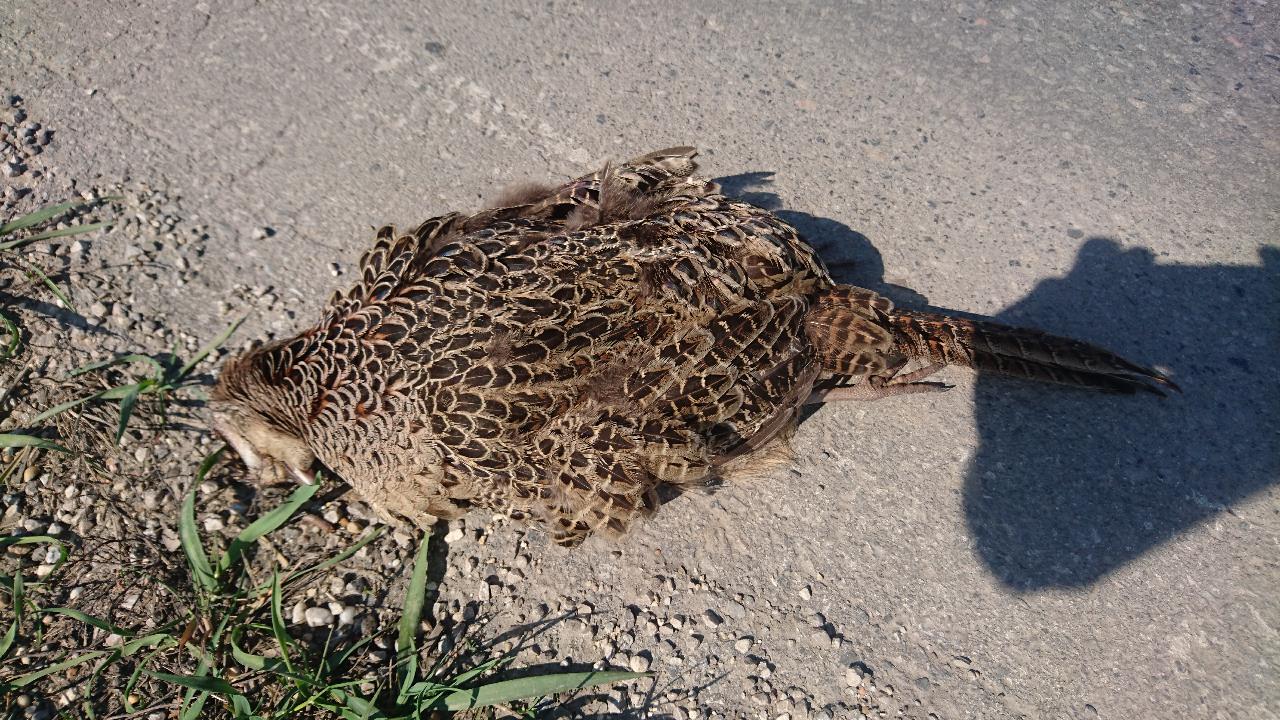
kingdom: Animalia
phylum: Chordata
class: Aves
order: Galliformes
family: Phasianidae
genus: Phasianus
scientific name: Phasianus colchicus
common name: Common pheasant
